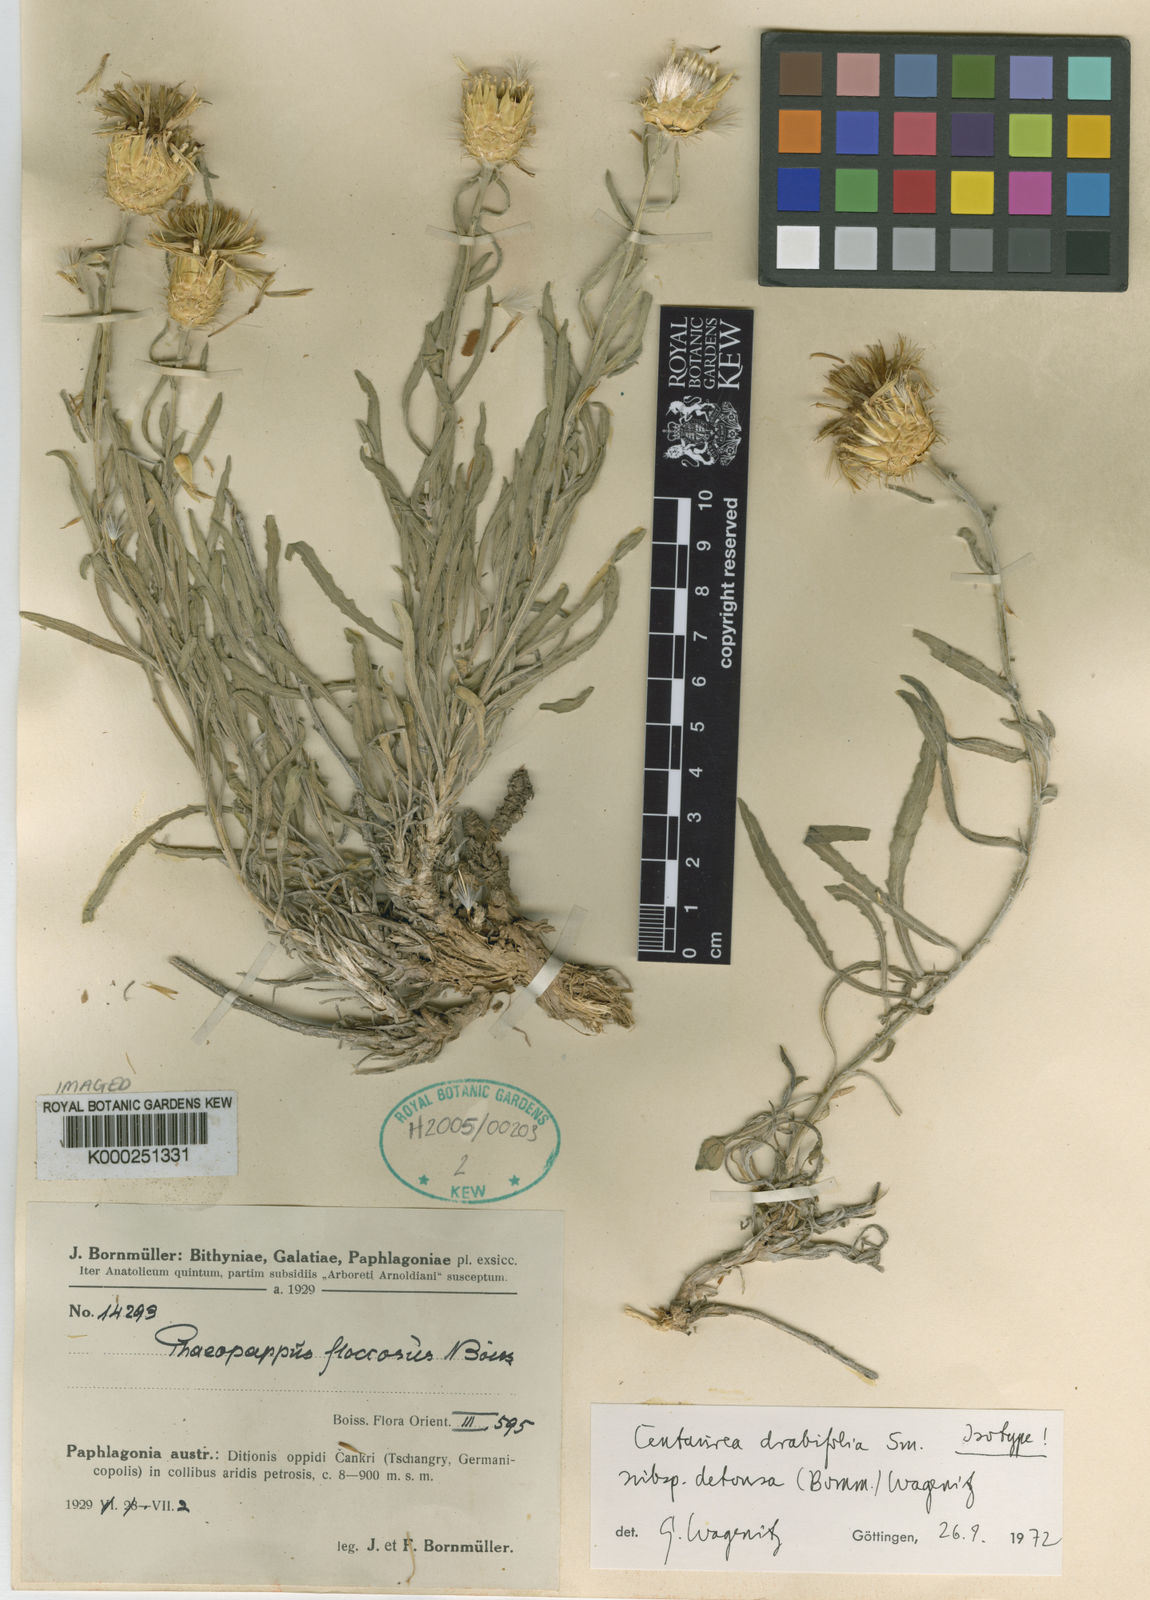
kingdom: Plantae
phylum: Tracheophyta
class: Magnoliopsida
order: Asterales
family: Asteraceae
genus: Centaurea
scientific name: Centaurea drabifolia
